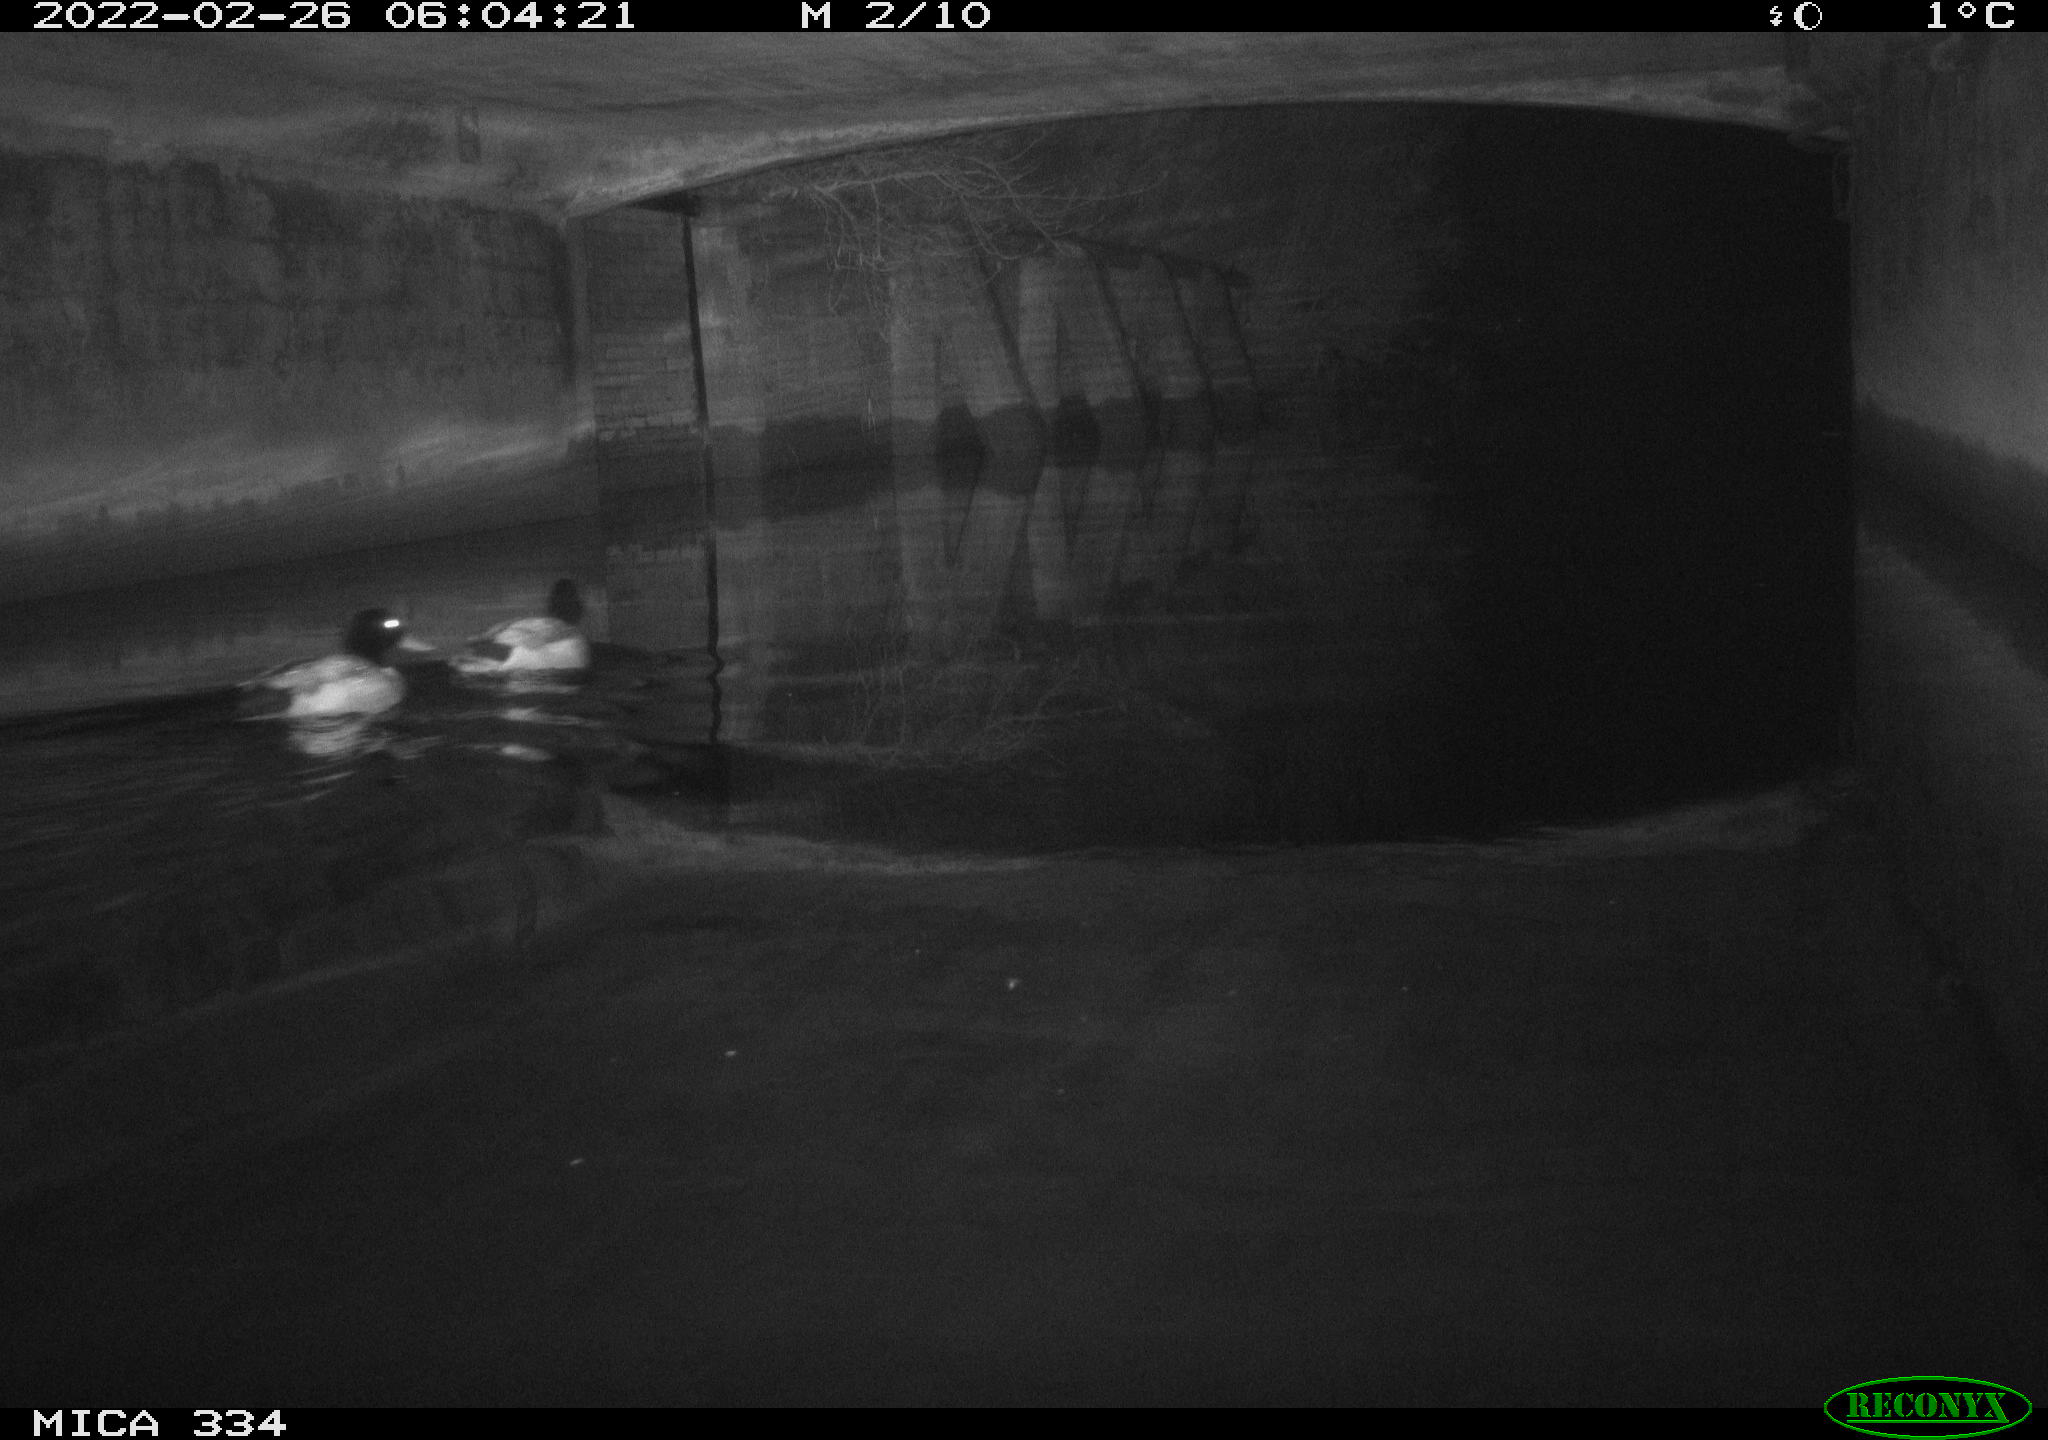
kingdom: Animalia
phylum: Chordata
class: Aves
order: Anseriformes
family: Anatidae
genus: Anas
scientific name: Anas platyrhynchos
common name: Mallard
